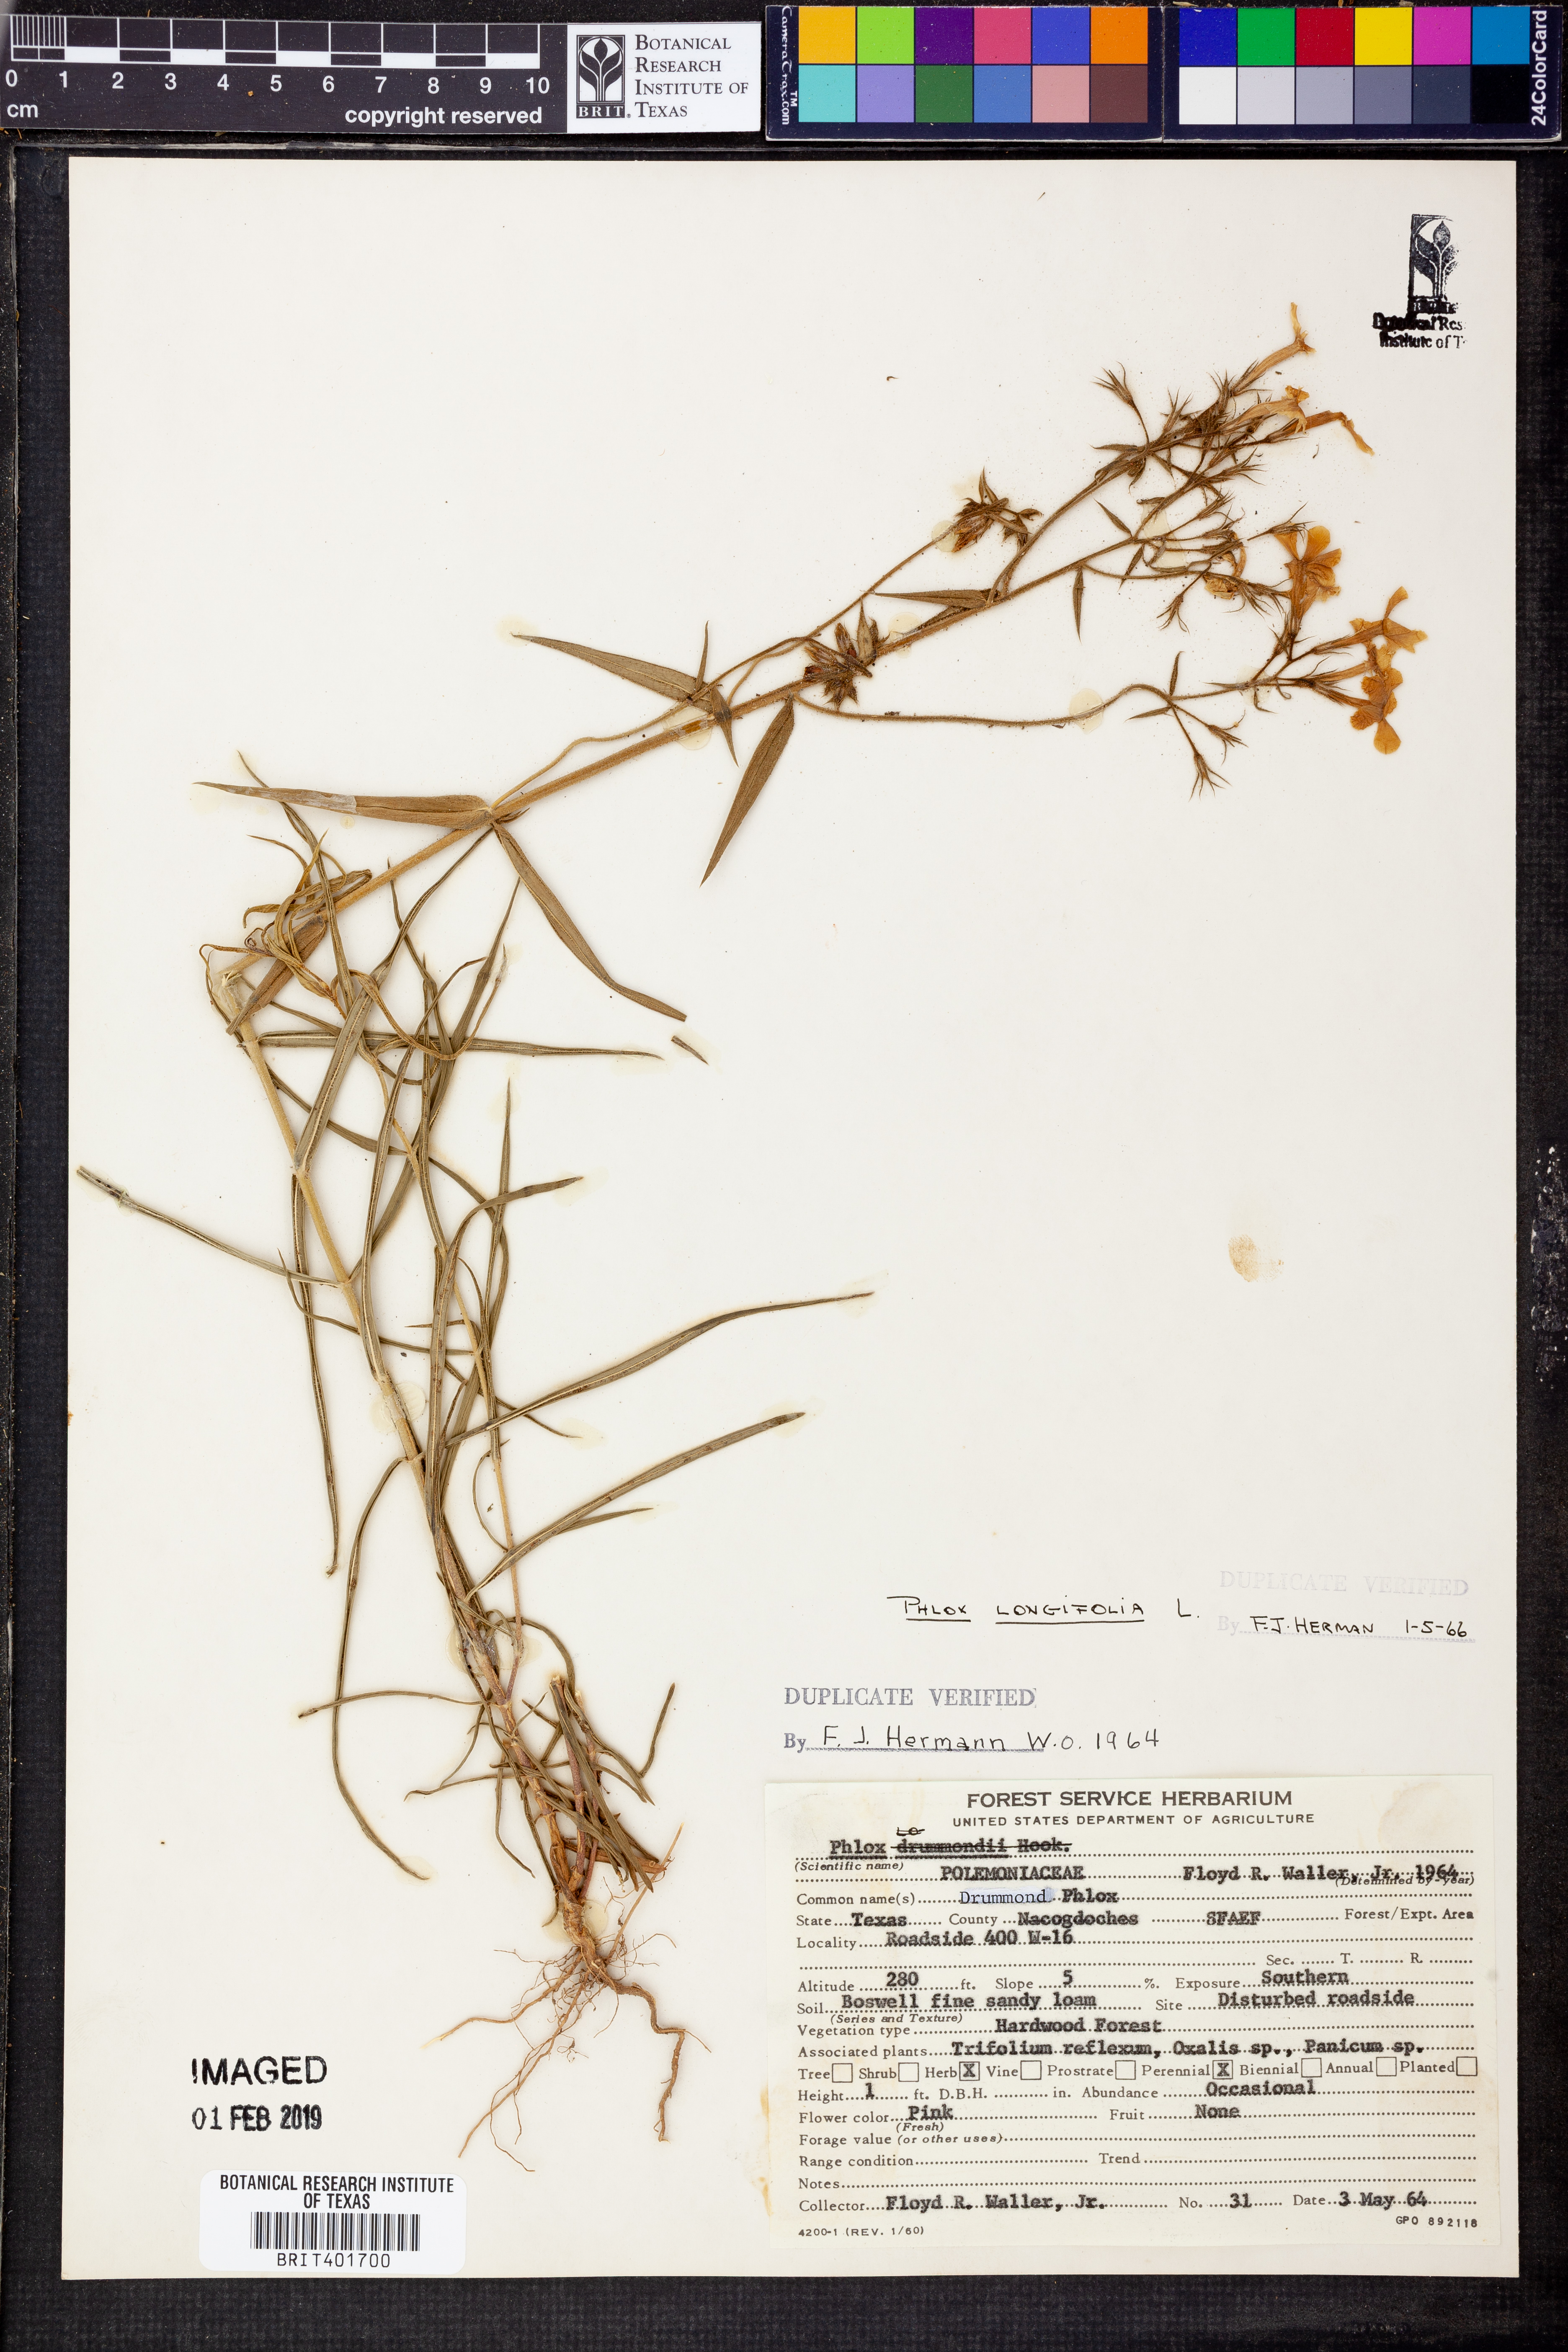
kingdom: Plantae
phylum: Tracheophyta
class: Magnoliopsida
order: Ericales
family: Polemoniaceae
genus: Phlox
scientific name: Phlox longifolia
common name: Longleaf phlox
